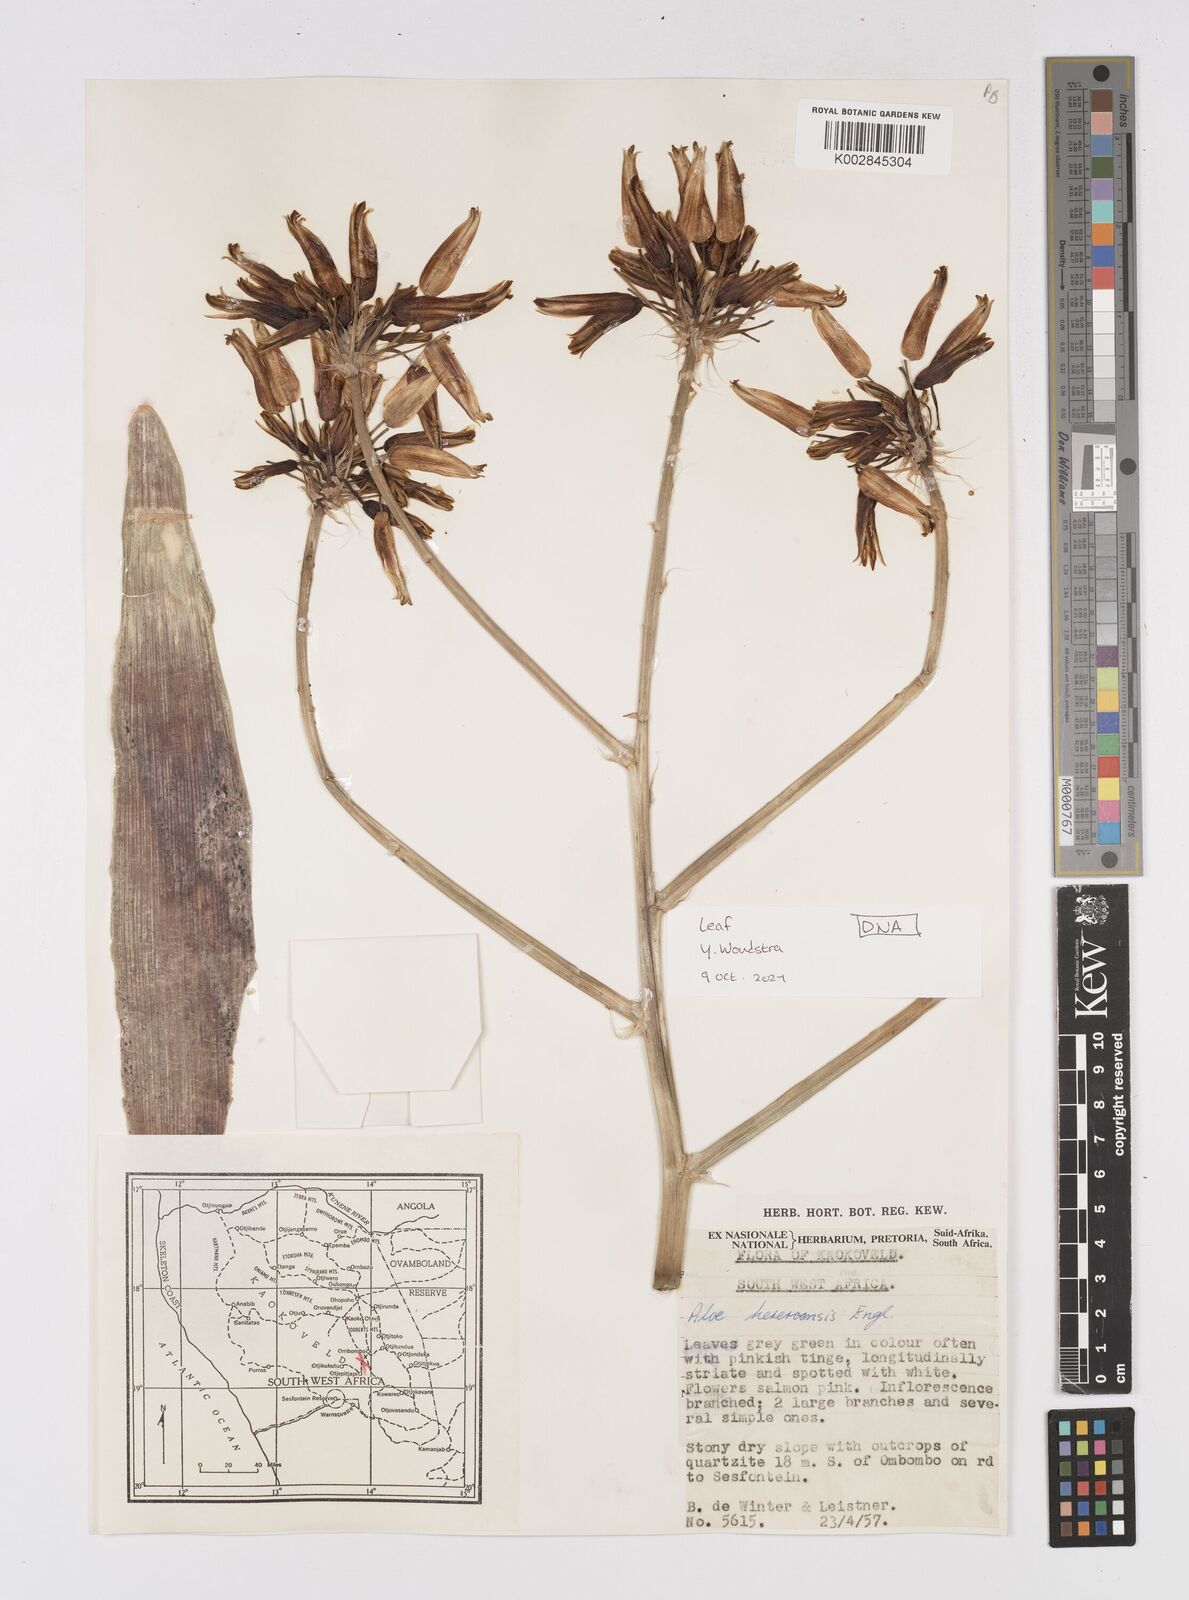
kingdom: Plantae
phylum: Tracheophyta
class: Liliopsida
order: Asparagales
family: Asphodelaceae
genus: Aloe
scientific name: Aloe hereroensis
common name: Herero aloe
